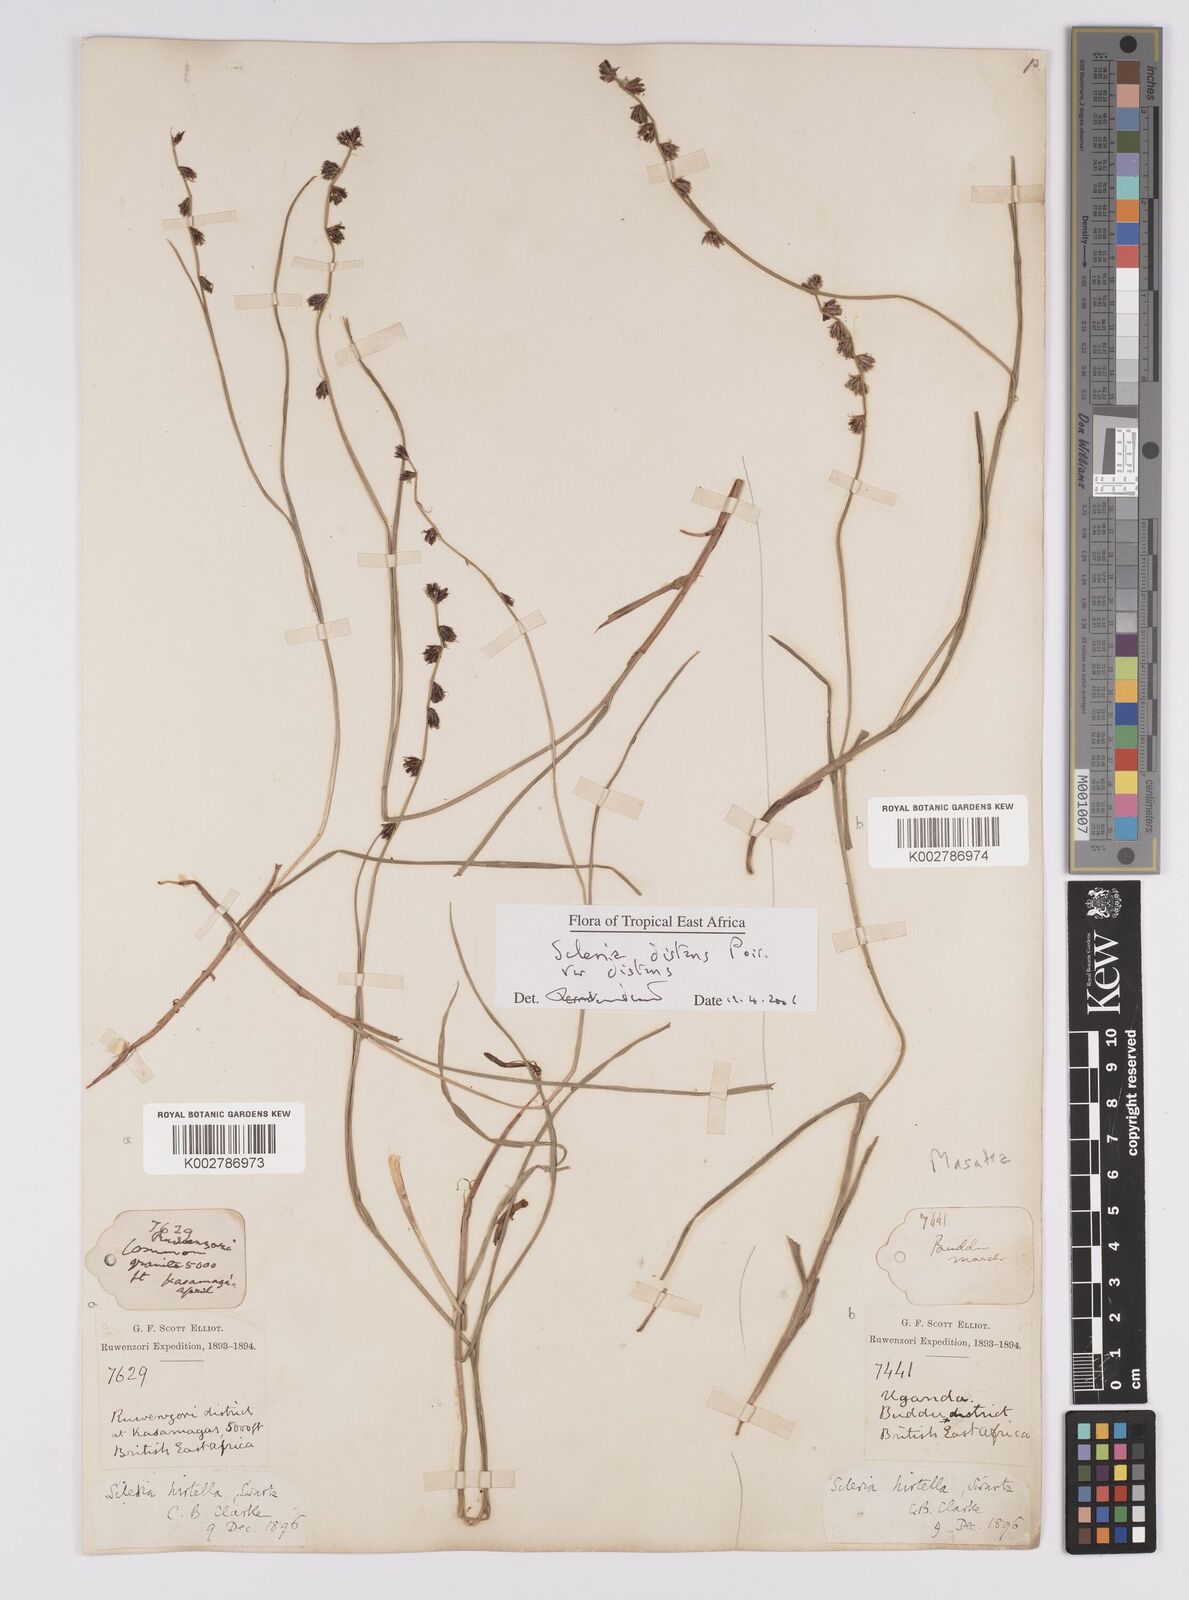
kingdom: Plantae
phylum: Tracheophyta
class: Liliopsida
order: Poales
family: Cyperaceae
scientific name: Cyperaceae
